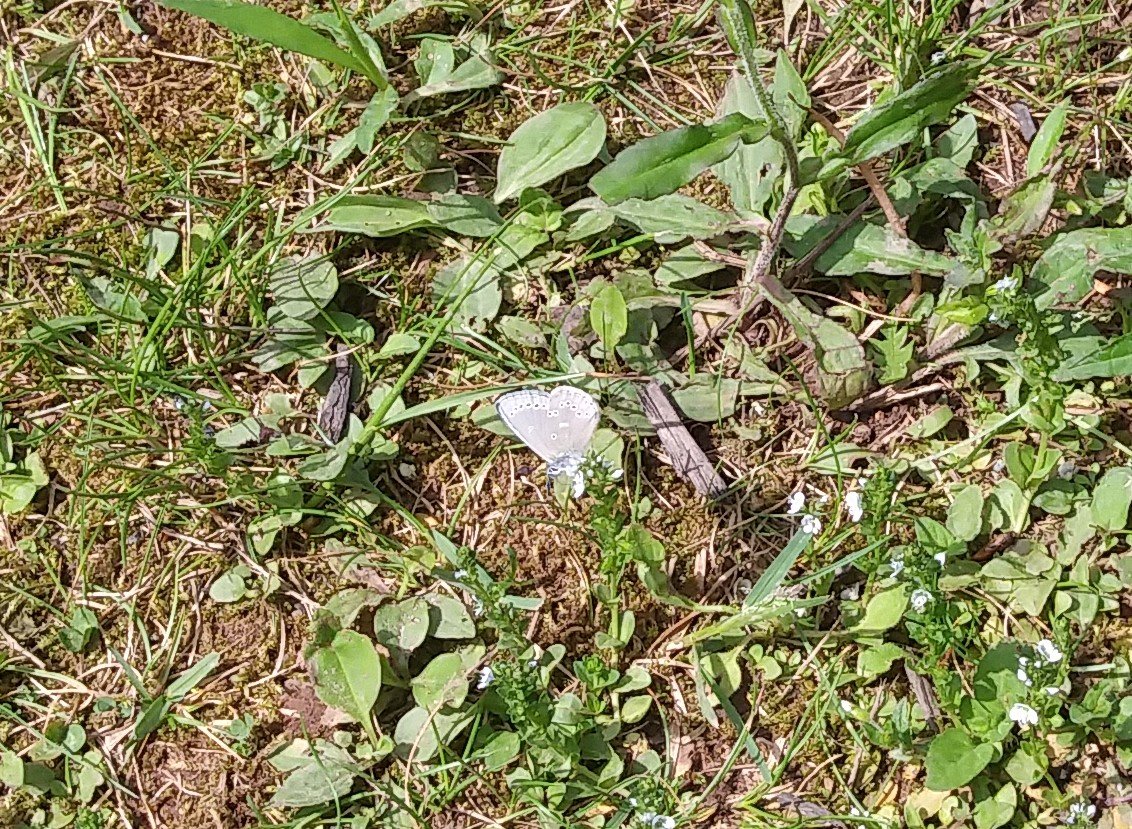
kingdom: Animalia
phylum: Arthropoda
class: Insecta
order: Lepidoptera
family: Lycaenidae
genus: Glaucopsyche
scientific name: Glaucopsyche lygdamus
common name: Silvery Blue
